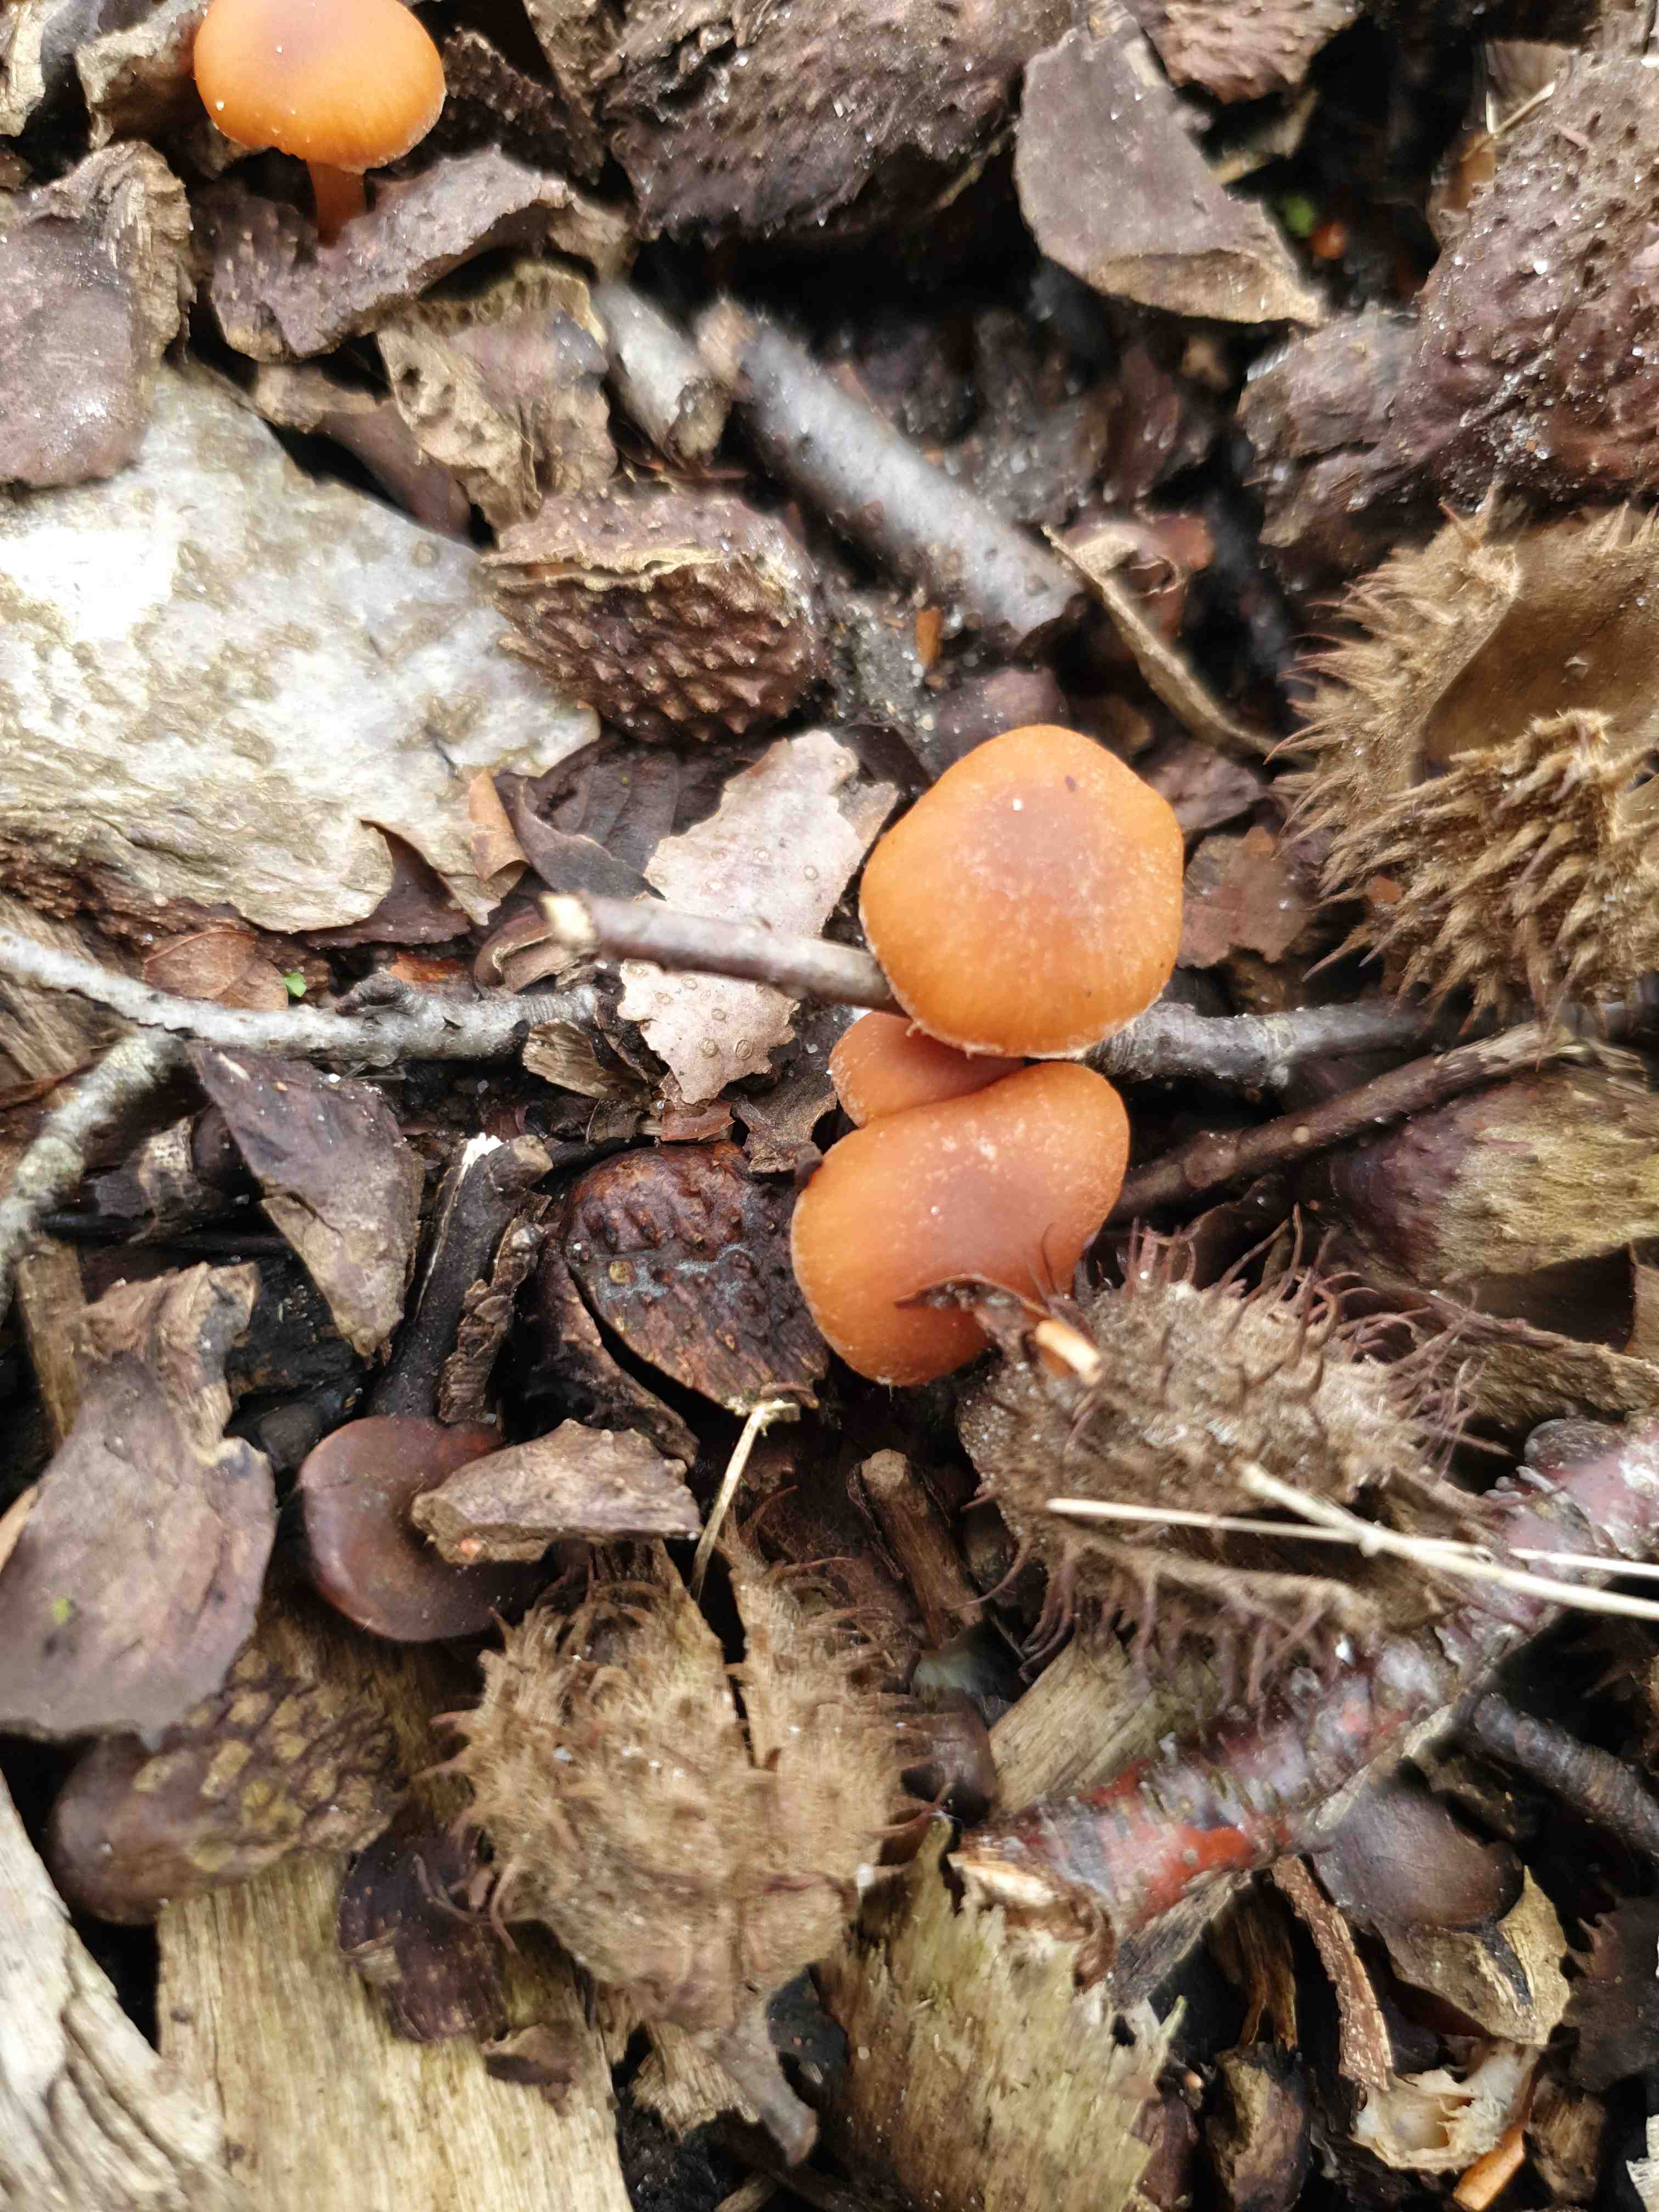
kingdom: Fungi
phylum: Basidiomycota
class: Agaricomycetes
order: Agaricales
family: Tubariaceae
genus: Tubaria
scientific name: Tubaria furfuracea
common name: kliddet fnughat
